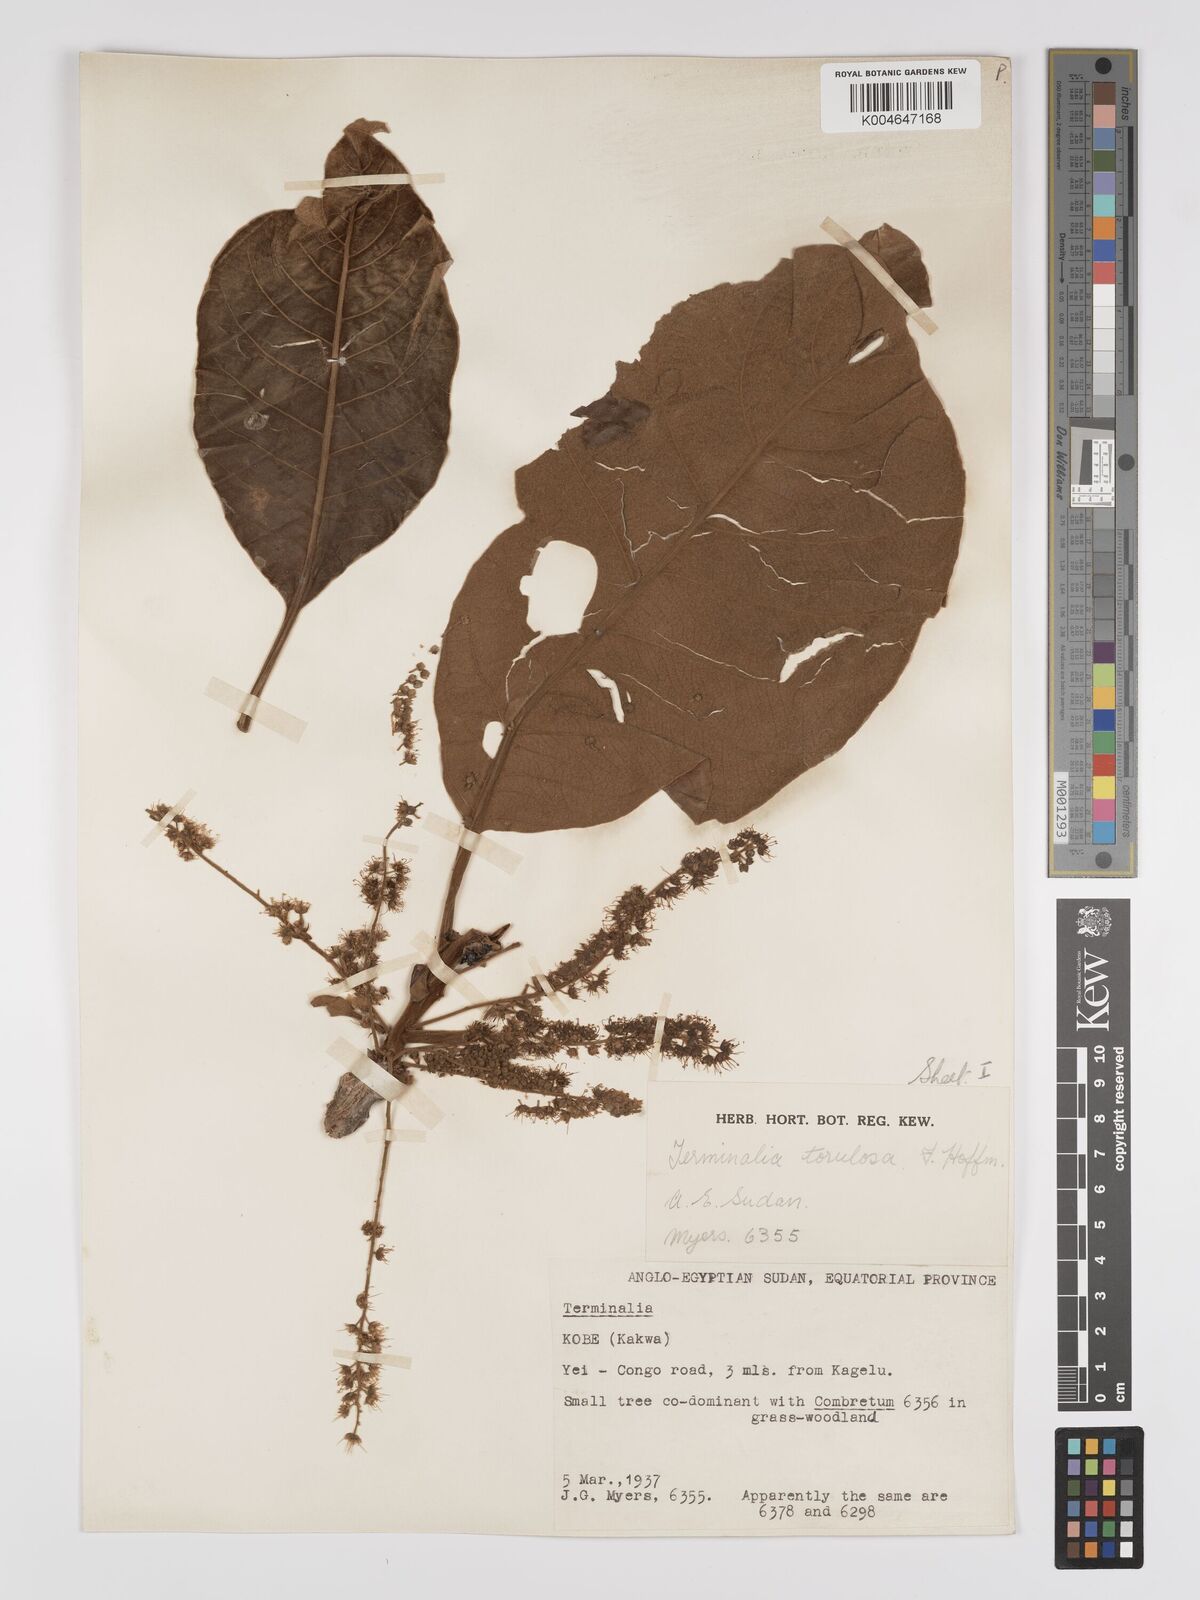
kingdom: Plantae
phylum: Tracheophyta
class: Magnoliopsida
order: Myrtales
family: Combretaceae
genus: Terminalia
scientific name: Terminalia mollis
